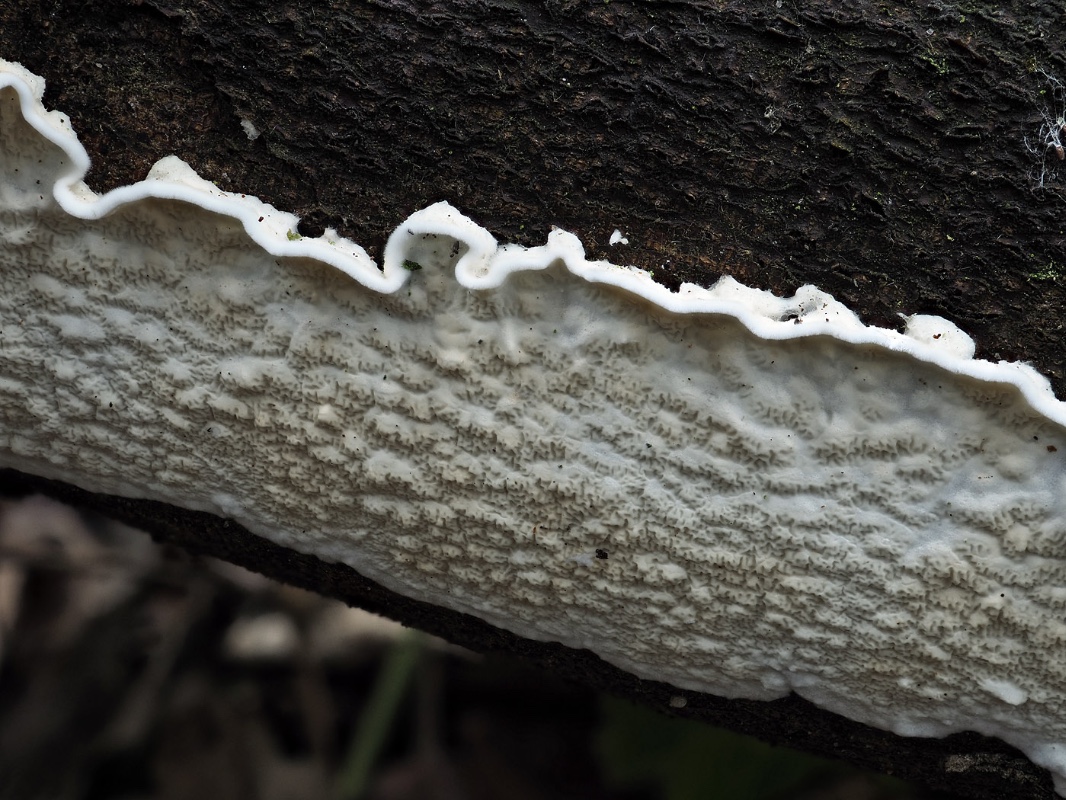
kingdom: Fungi
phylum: Basidiomycota
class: Agaricomycetes
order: Polyporales
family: Irpicaceae
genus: Byssomerulius
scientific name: Byssomerulius corium
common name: læder-åresvamp
